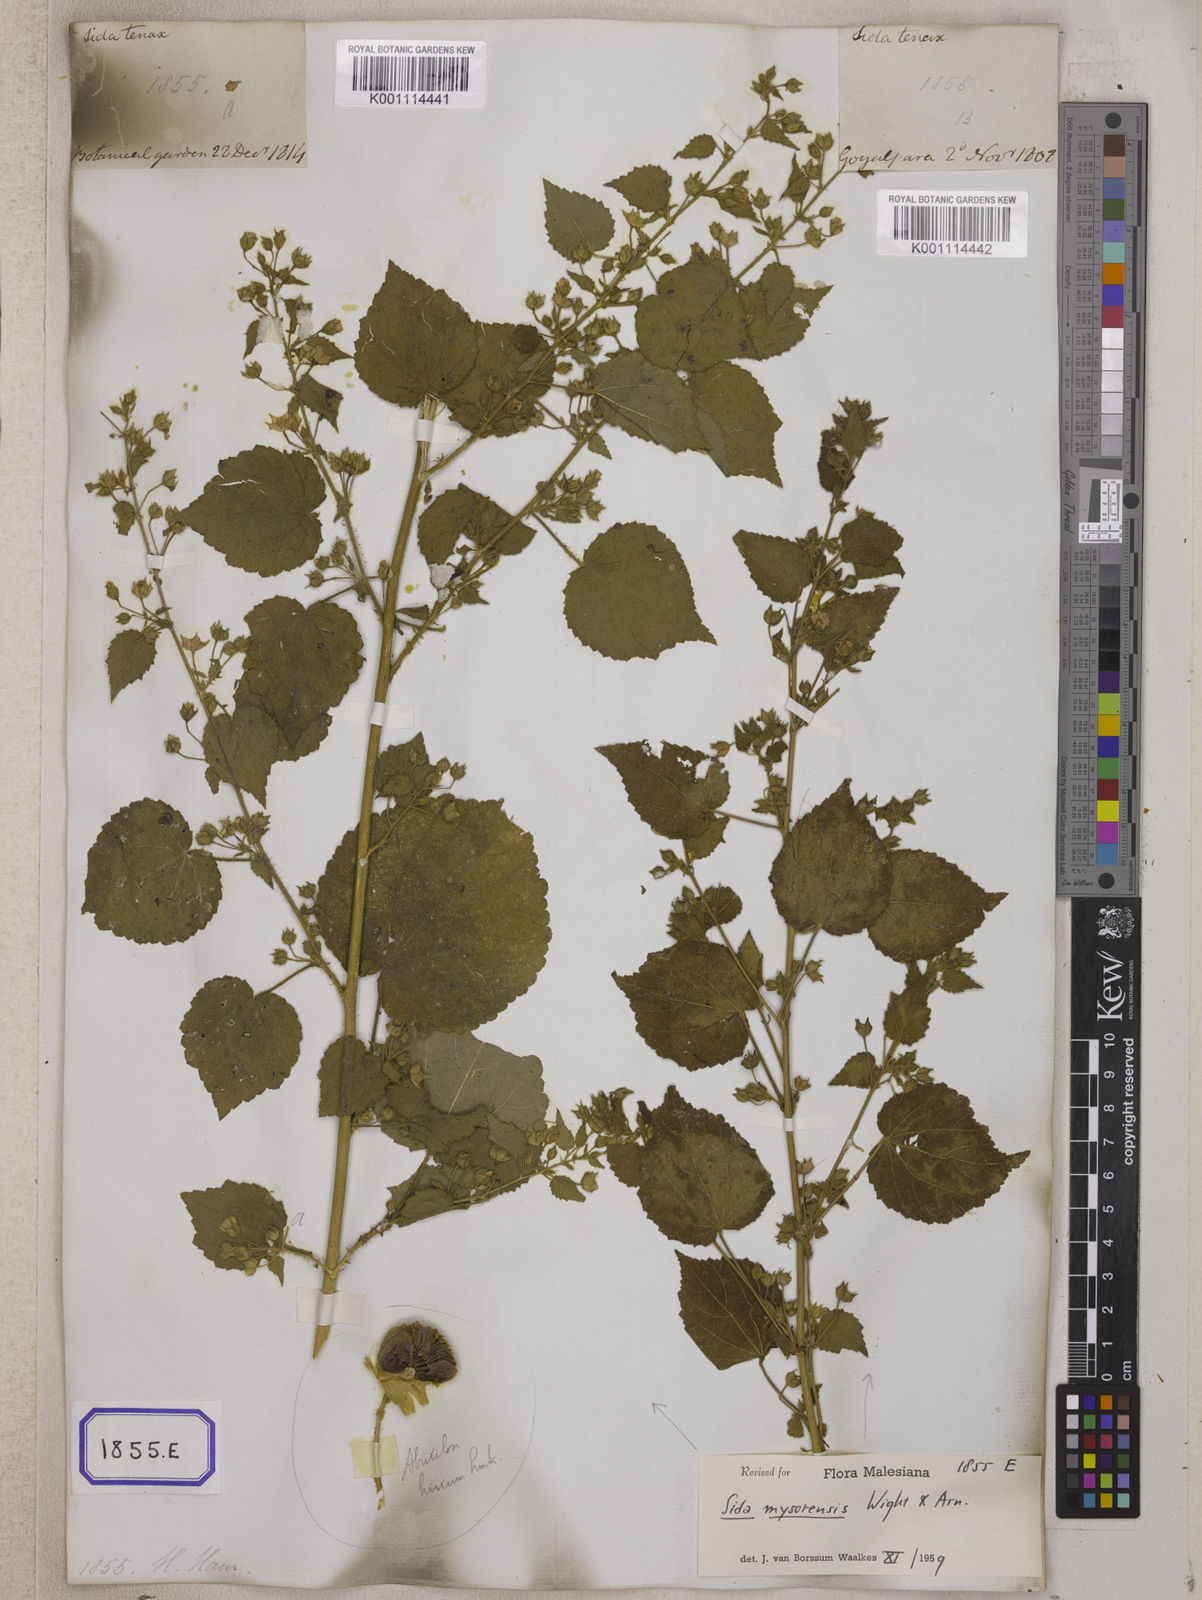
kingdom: Plantae
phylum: Tracheophyta
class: Magnoliopsida
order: Malvales
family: Malvaceae
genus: Abutilon
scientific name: Abutilon hirtum
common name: Florida keys indian mallow
